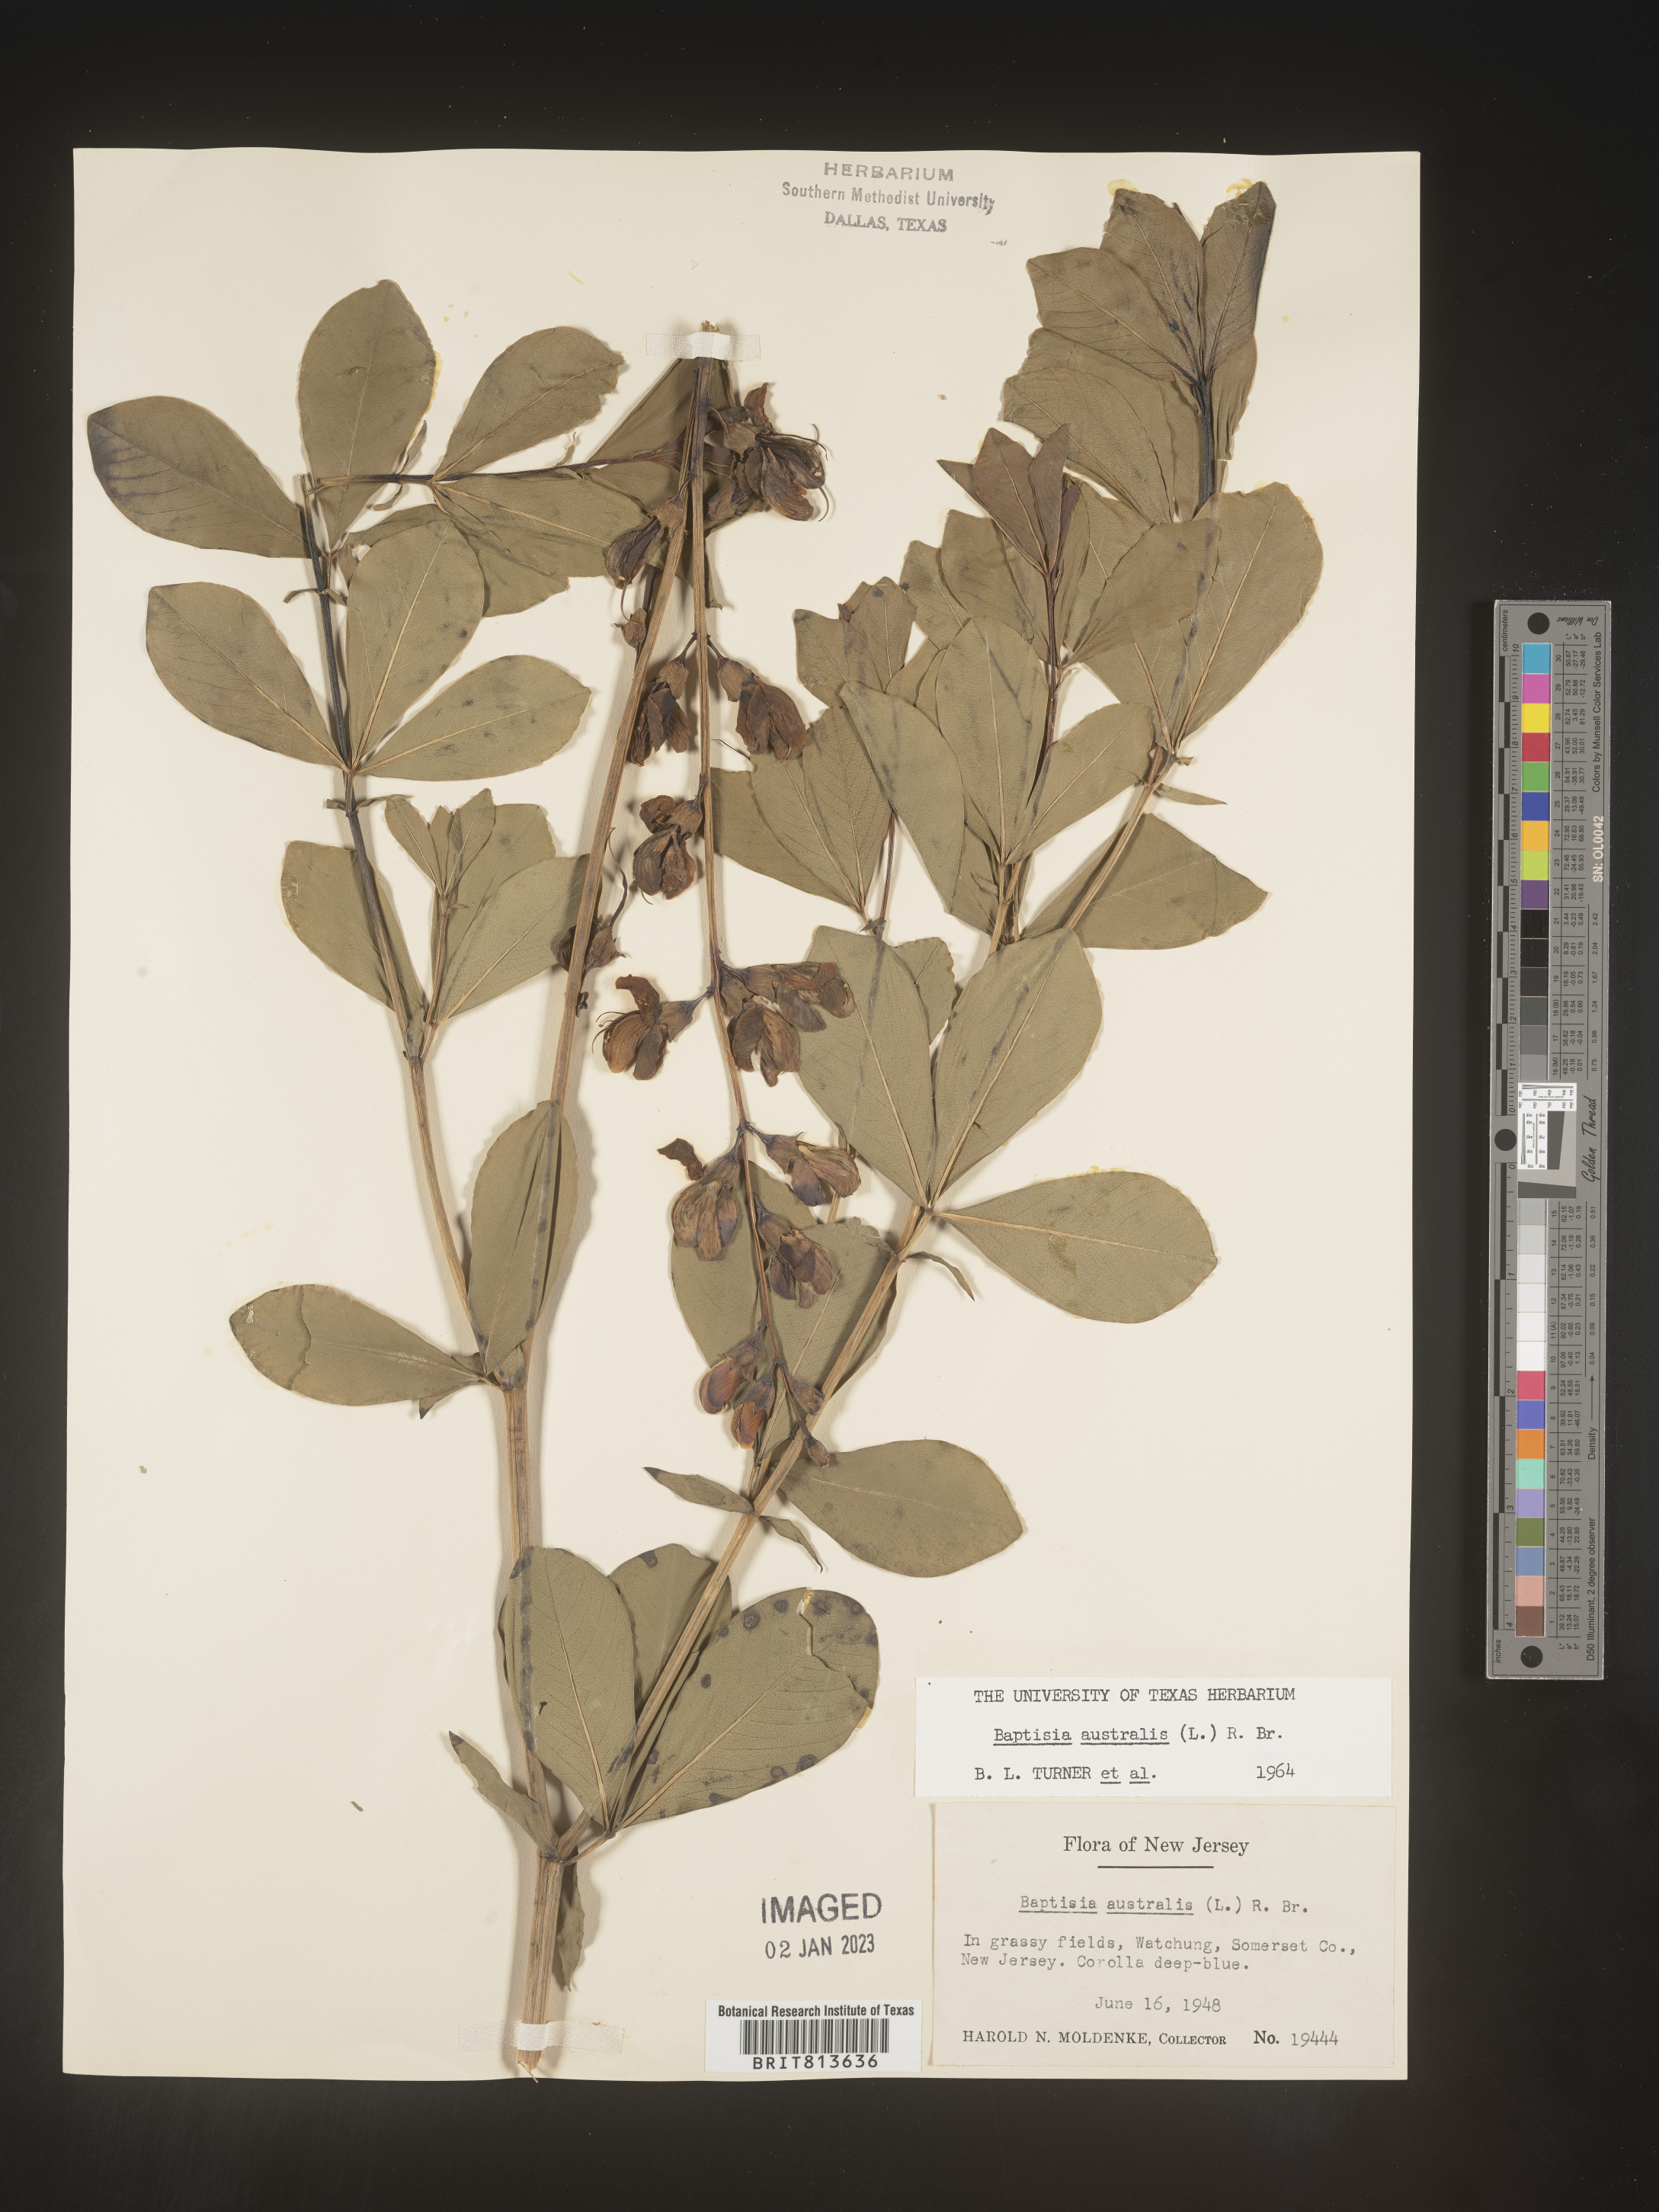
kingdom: Plantae
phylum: Tracheophyta
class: Magnoliopsida
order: Fabales
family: Fabaceae
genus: Baptisia
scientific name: Baptisia australis
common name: Blue false indigo
